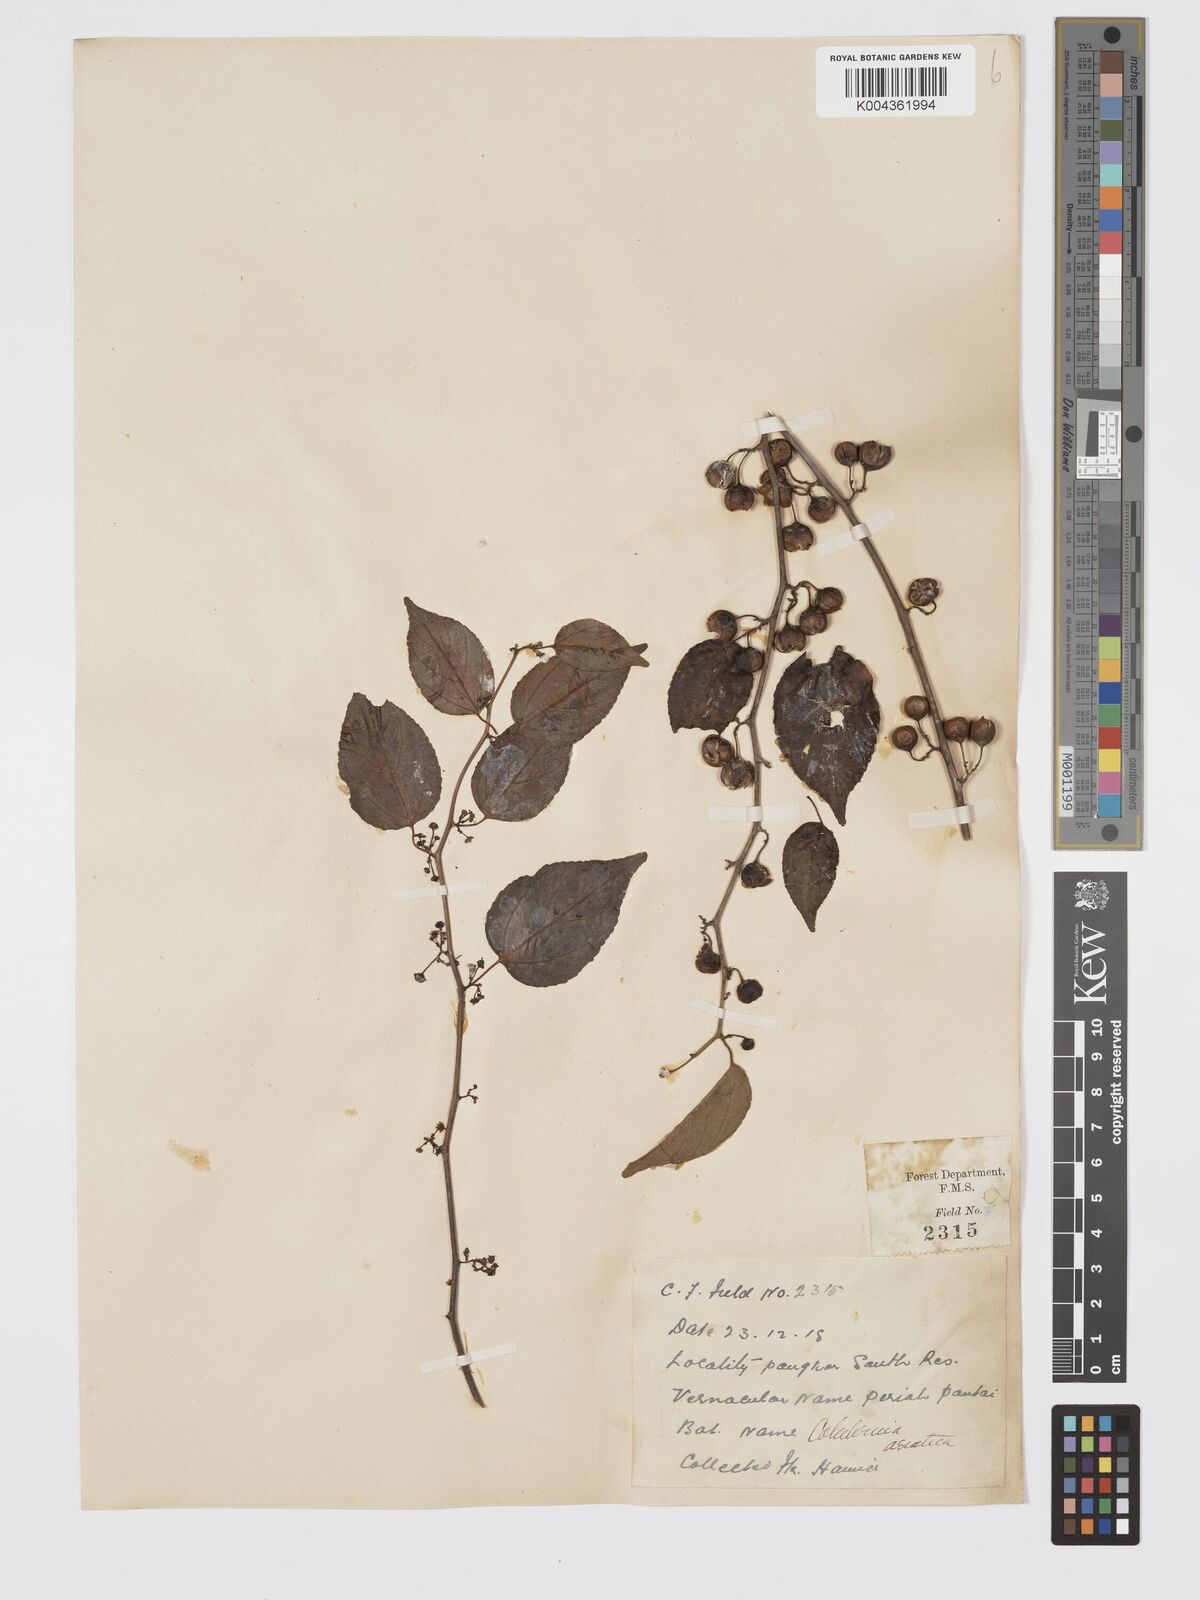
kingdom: Plantae
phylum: Tracheophyta
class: Magnoliopsida
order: Rosales
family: Rhamnaceae
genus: Colubrina
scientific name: Colubrina asiatica
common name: Asian nakedwood
